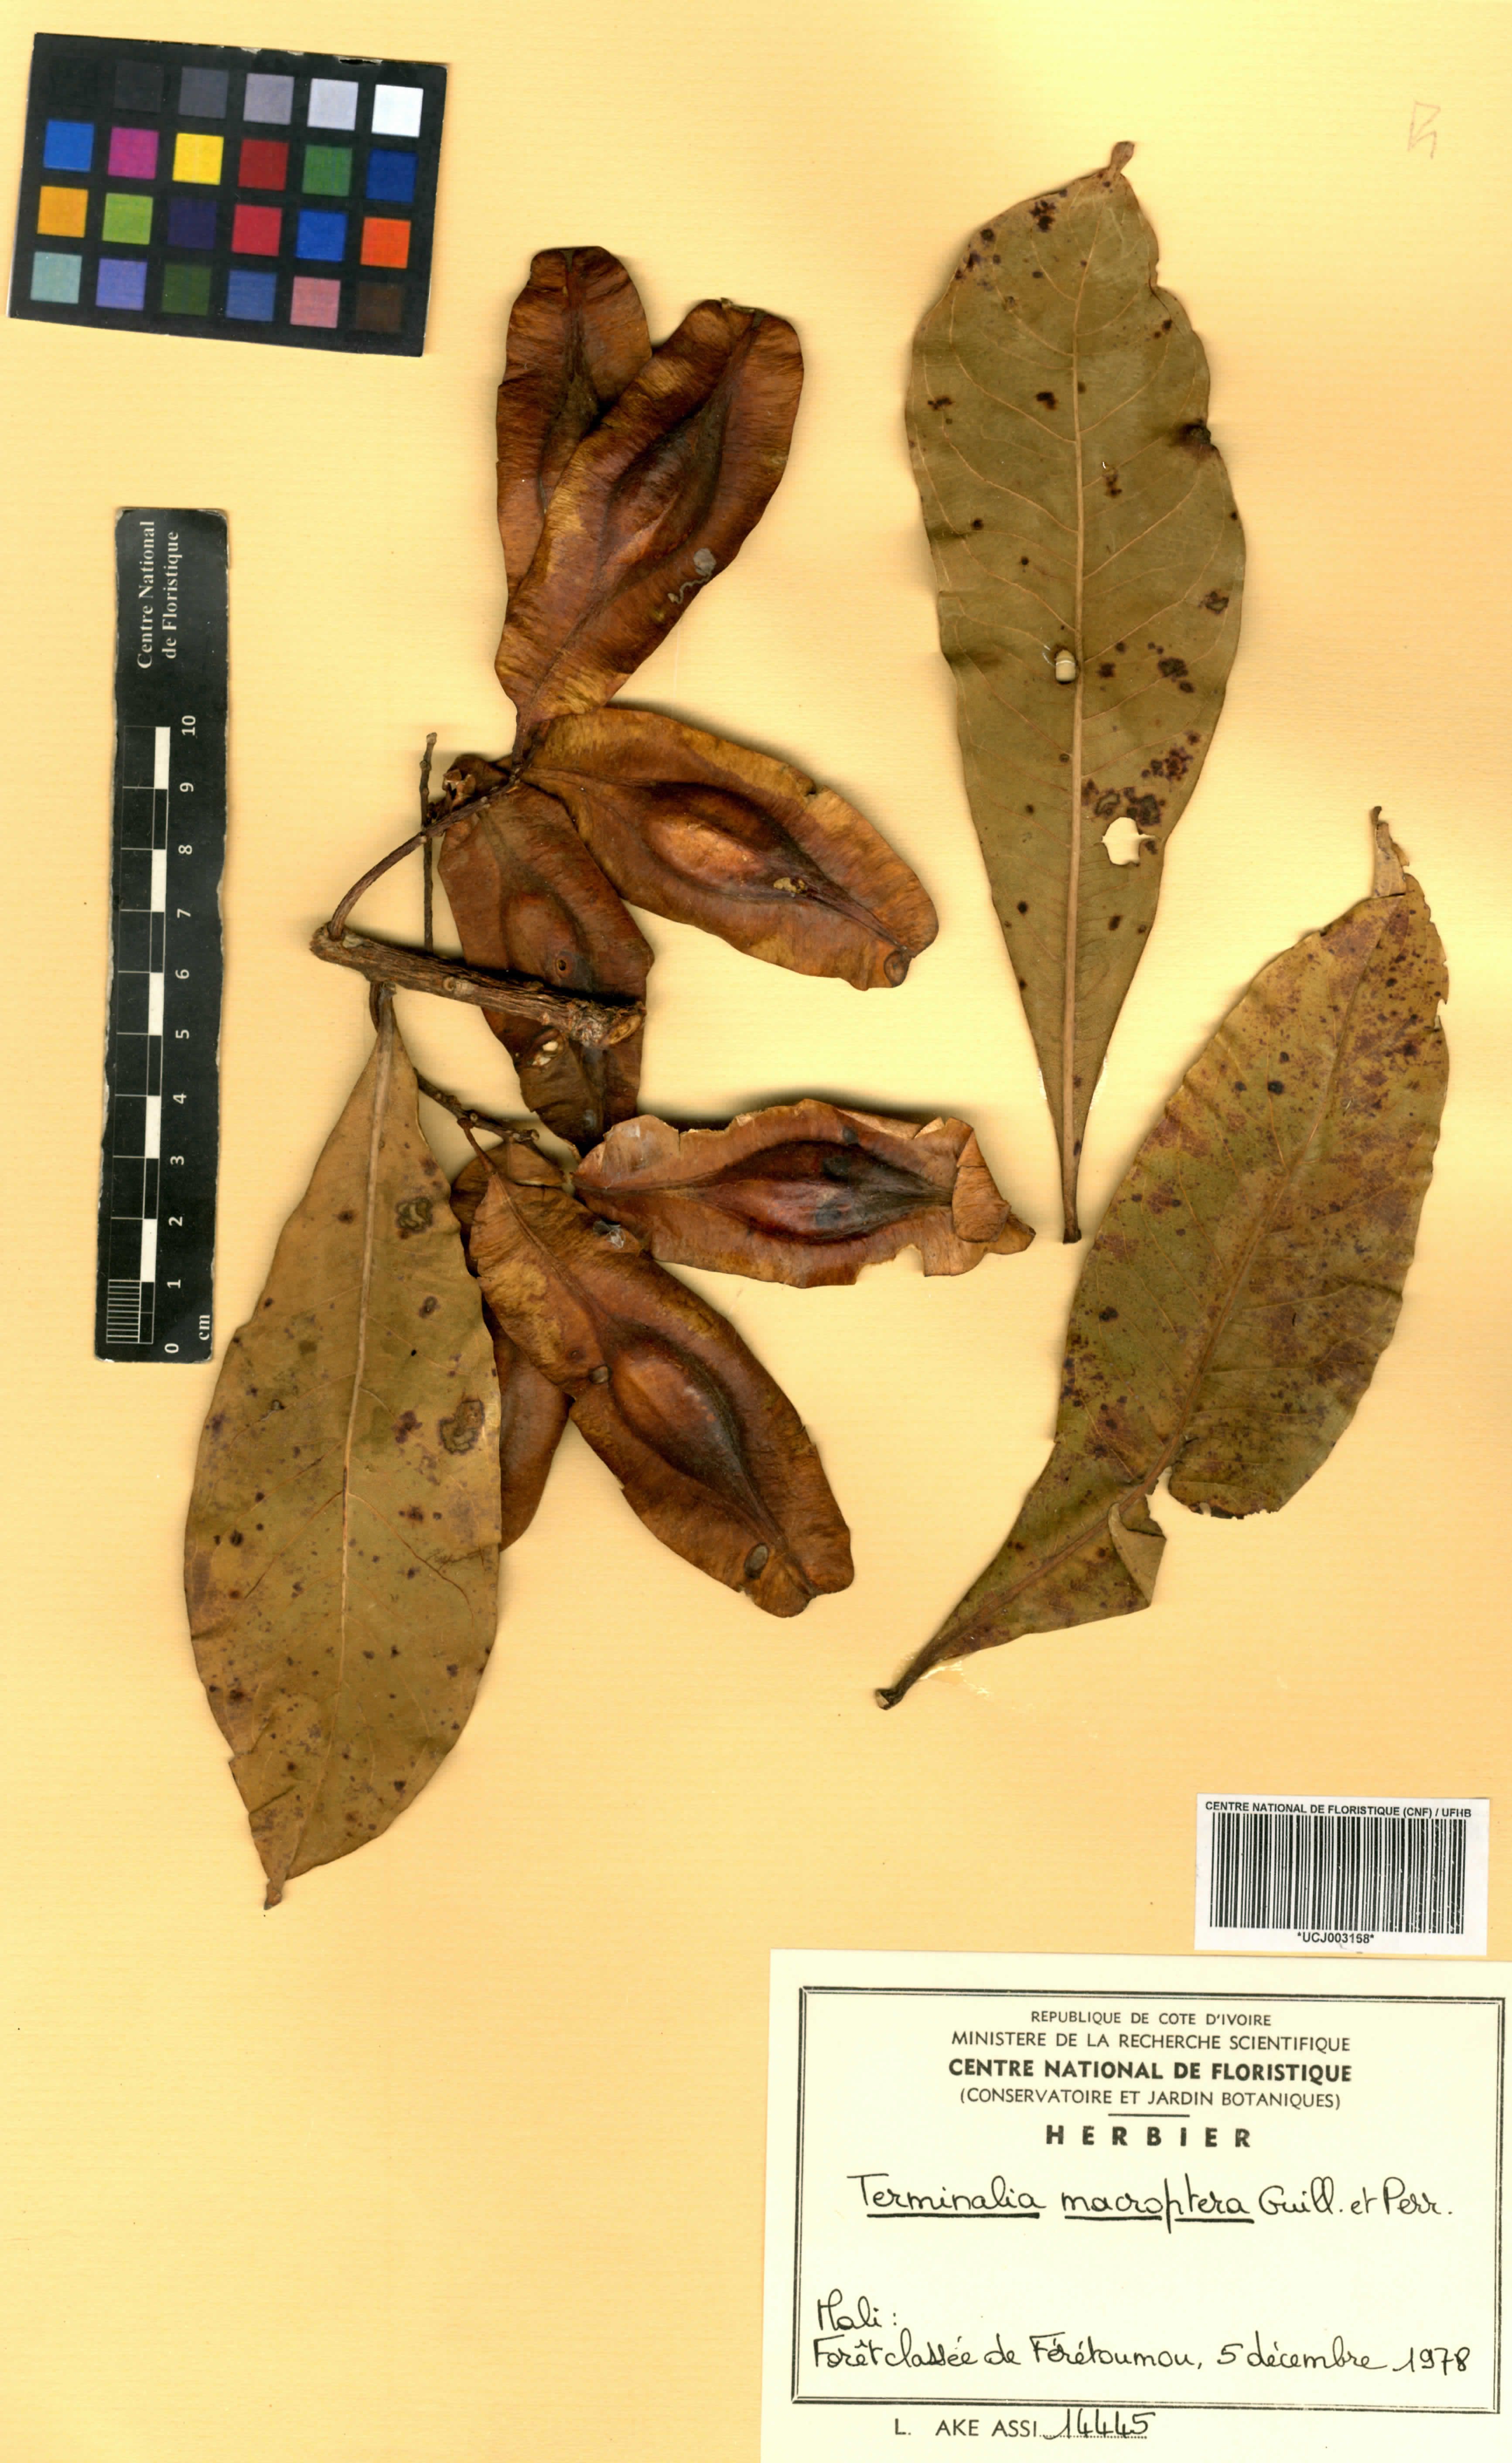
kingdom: Plantae
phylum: Tracheophyta
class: Magnoliopsida
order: Myrtales
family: Combretaceae
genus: Terminalia
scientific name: Terminalia macroptera
